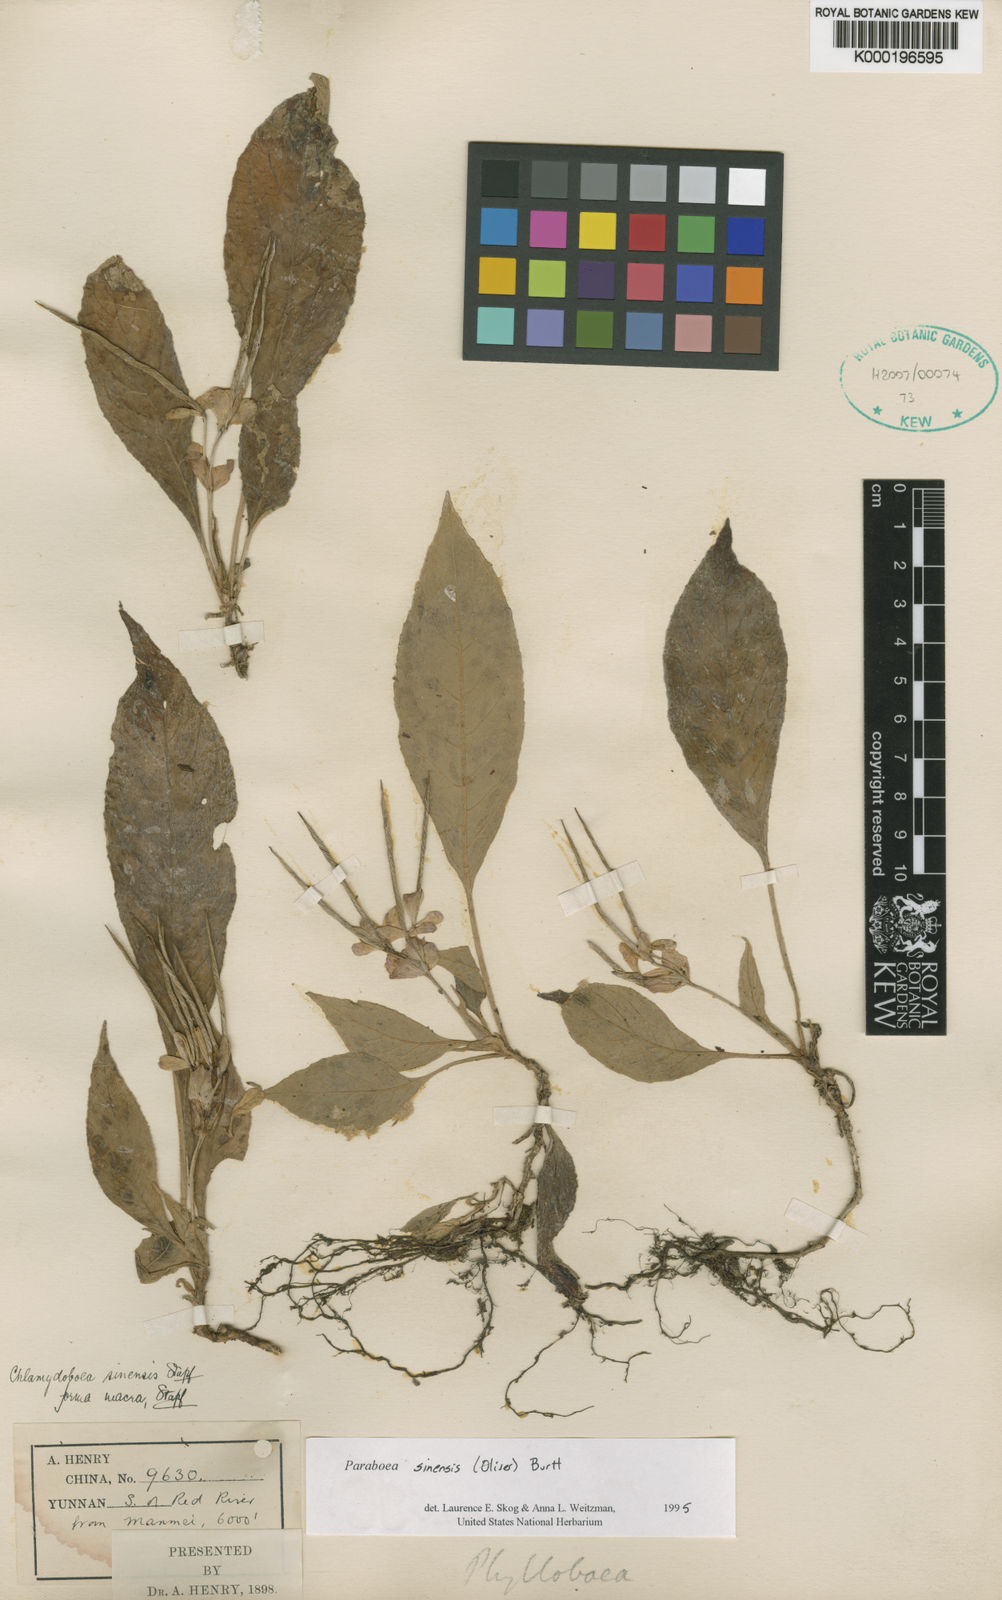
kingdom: Plantae
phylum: Tracheophyta
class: Magnoliopsida
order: Lamiales
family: Gesneriaceae
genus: Paraboea
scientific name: Paraboea sinensis
